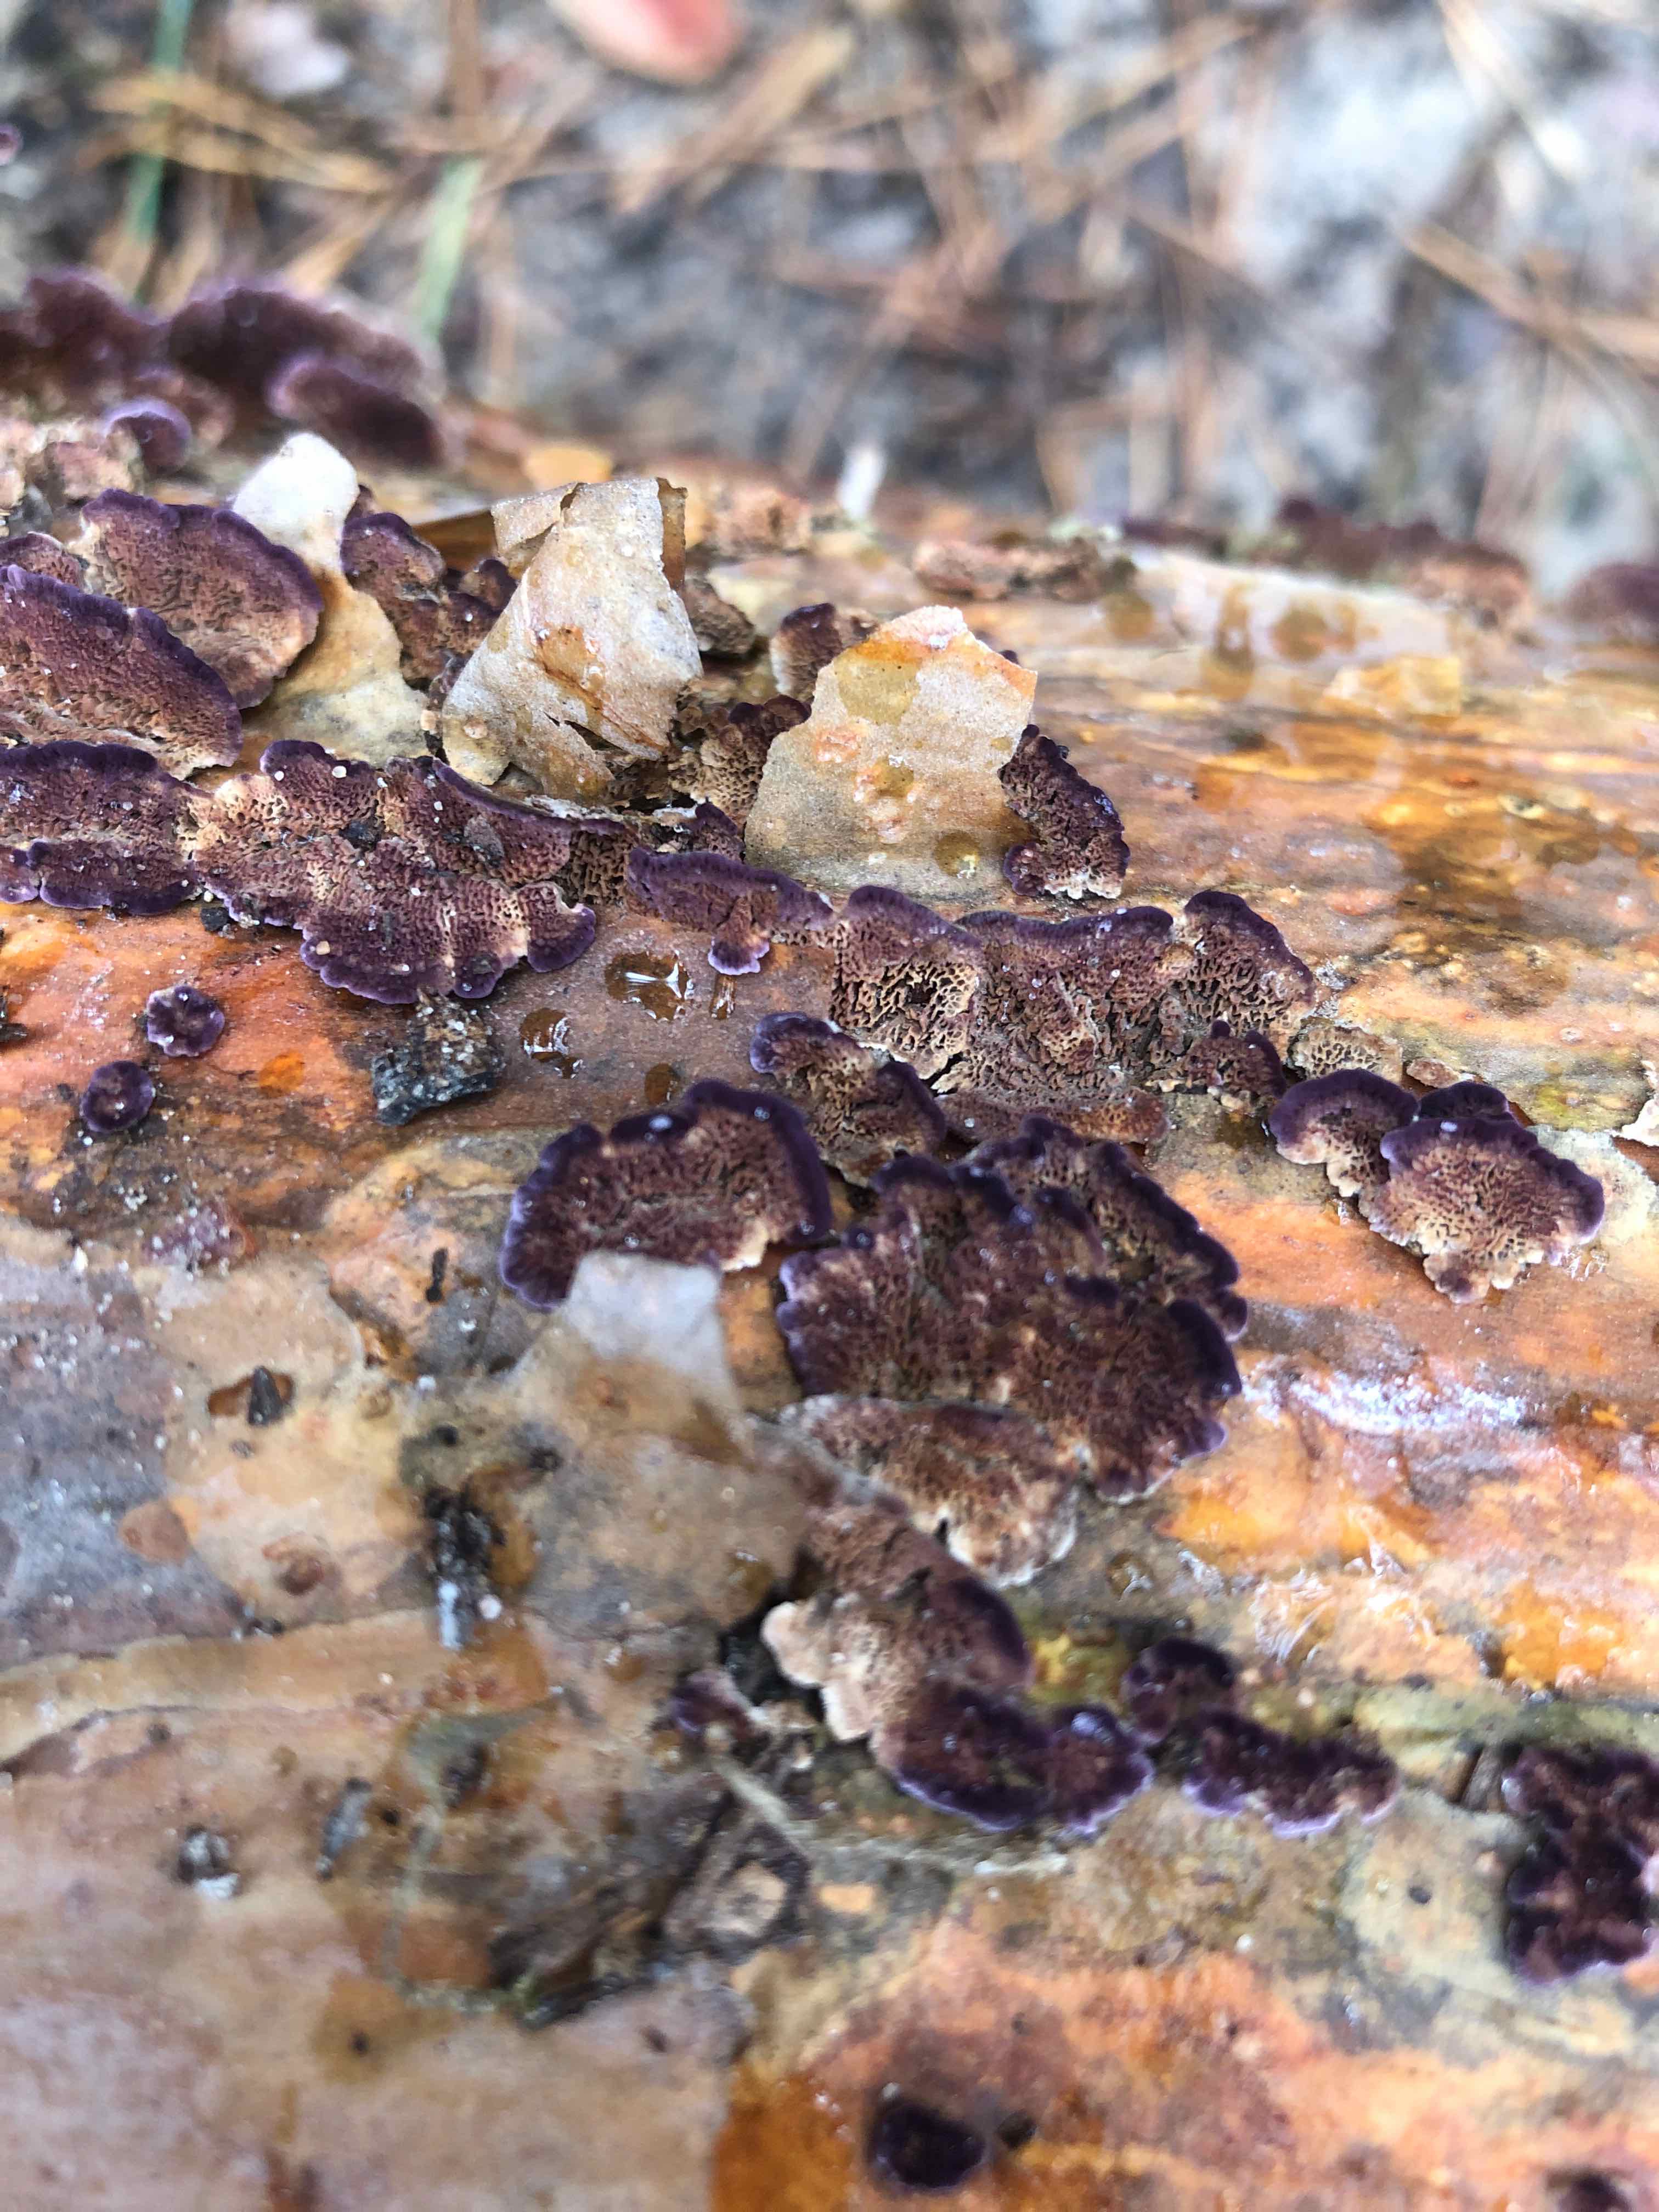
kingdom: Fungi
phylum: Basidiomycota
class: Agaricomycetes
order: Hymenochaetales
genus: Trichaptum
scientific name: Trichaptum abietinum
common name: almindelig violporesvamp
